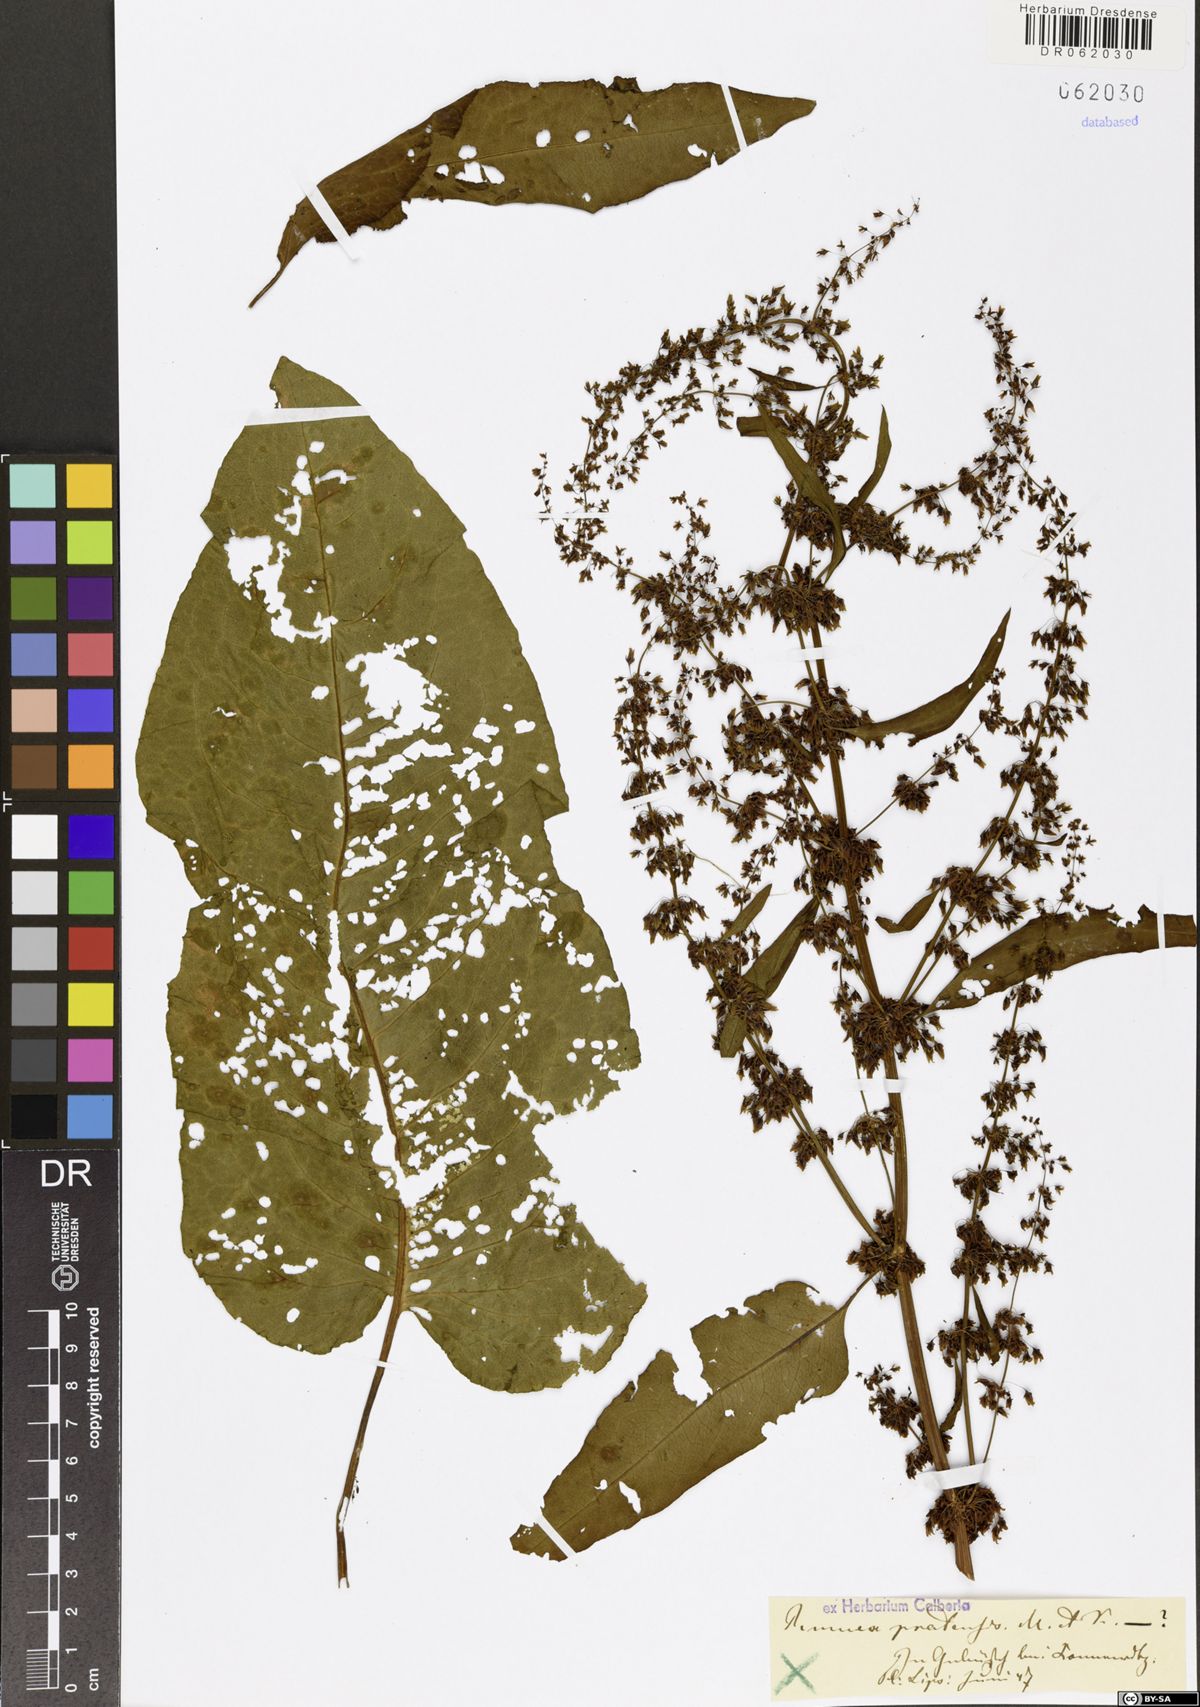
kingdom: Plantae
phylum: Tracheophyta
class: Magnoliopsida
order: Caryophyllales
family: Polygonaceae
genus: Rumex
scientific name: Rumex pratensis
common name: Knotweed
